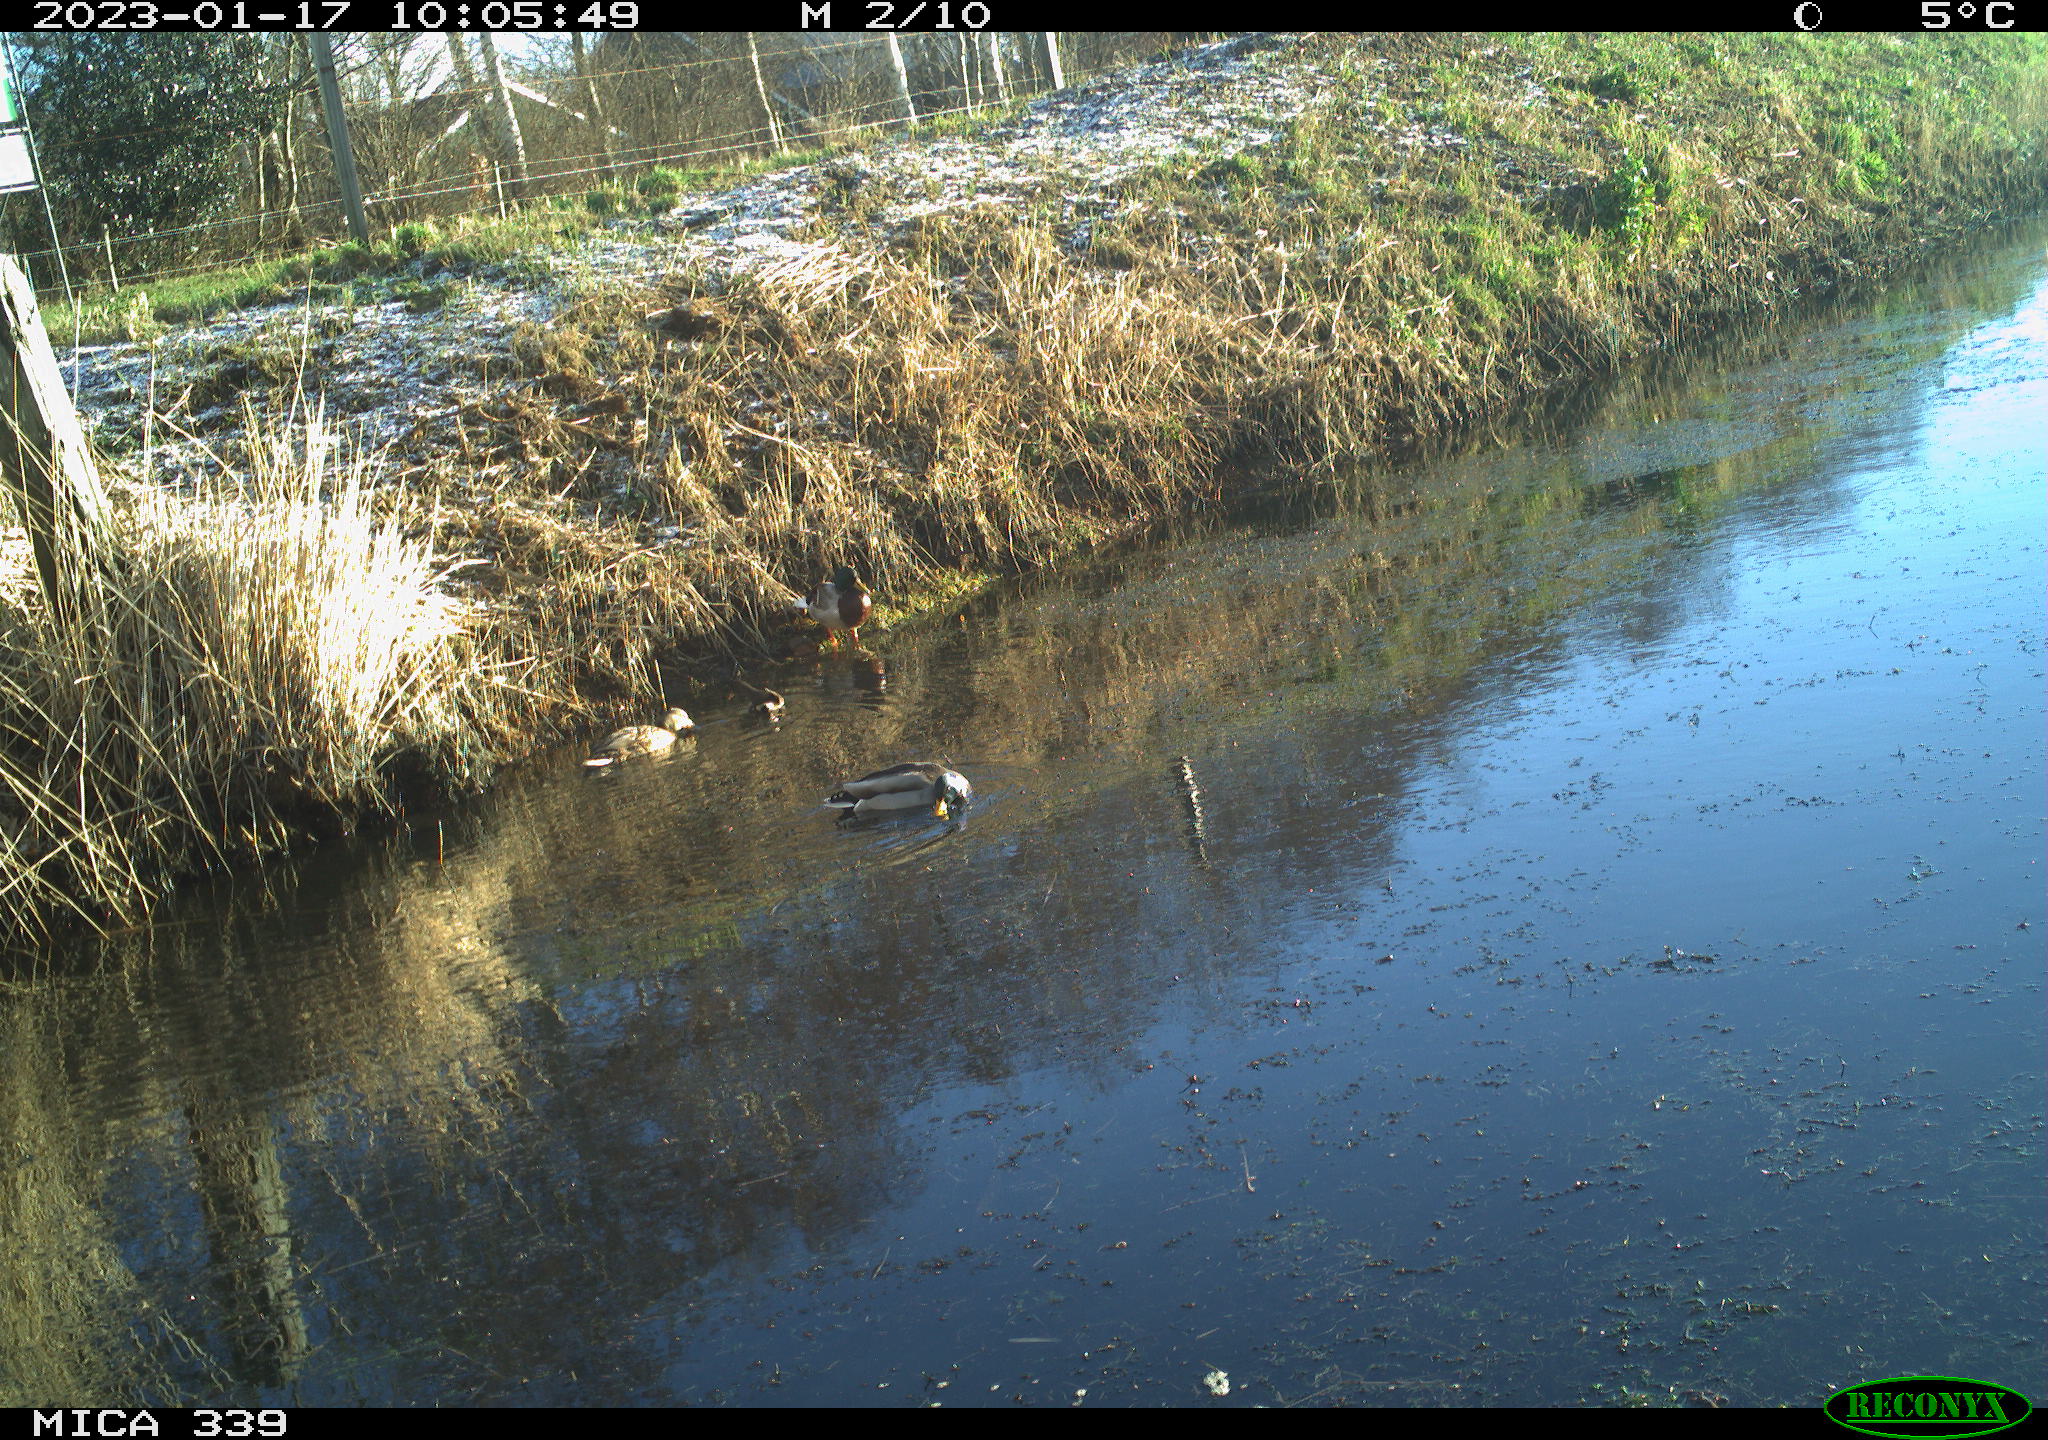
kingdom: Animalia
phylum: Chordata
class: Aves
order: Anseriformes
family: Anatidae
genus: Anas
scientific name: Anas
